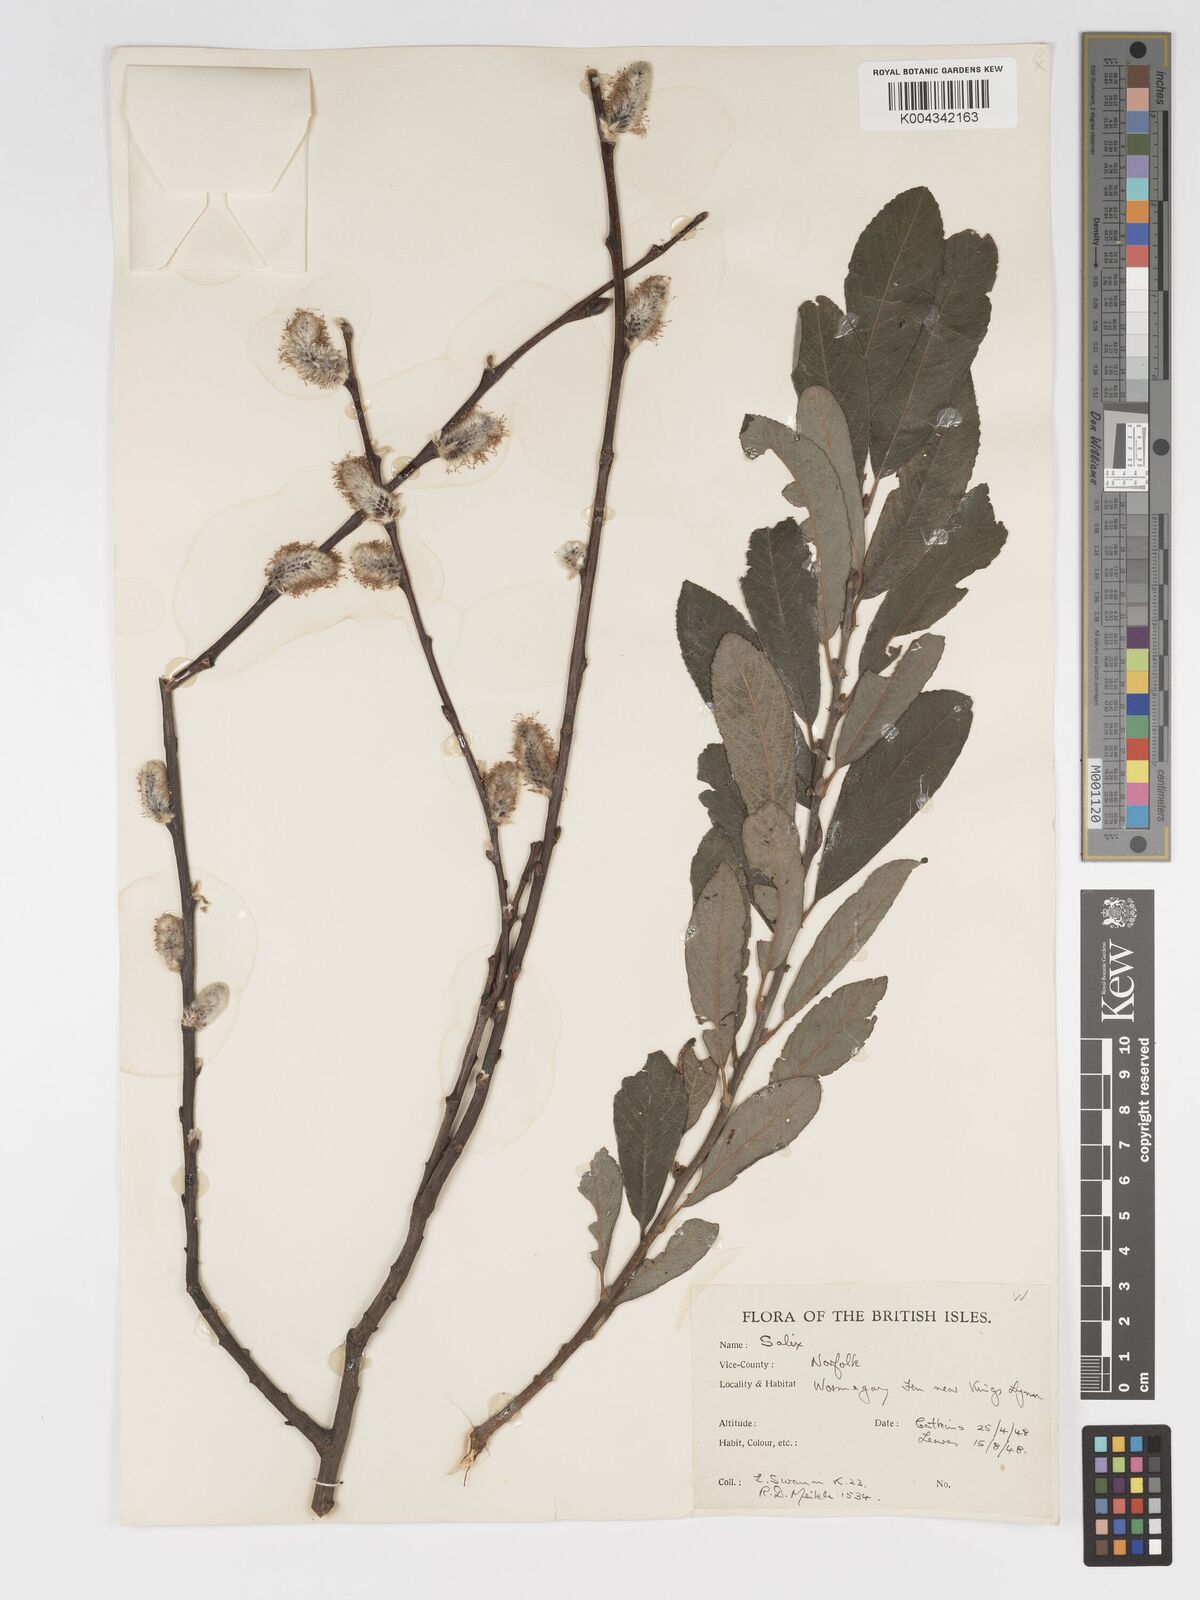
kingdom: Plantae
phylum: Tracheophyta
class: Magnoliopsida
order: Malpighiales
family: Salicaceae
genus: Salix
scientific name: Salix
